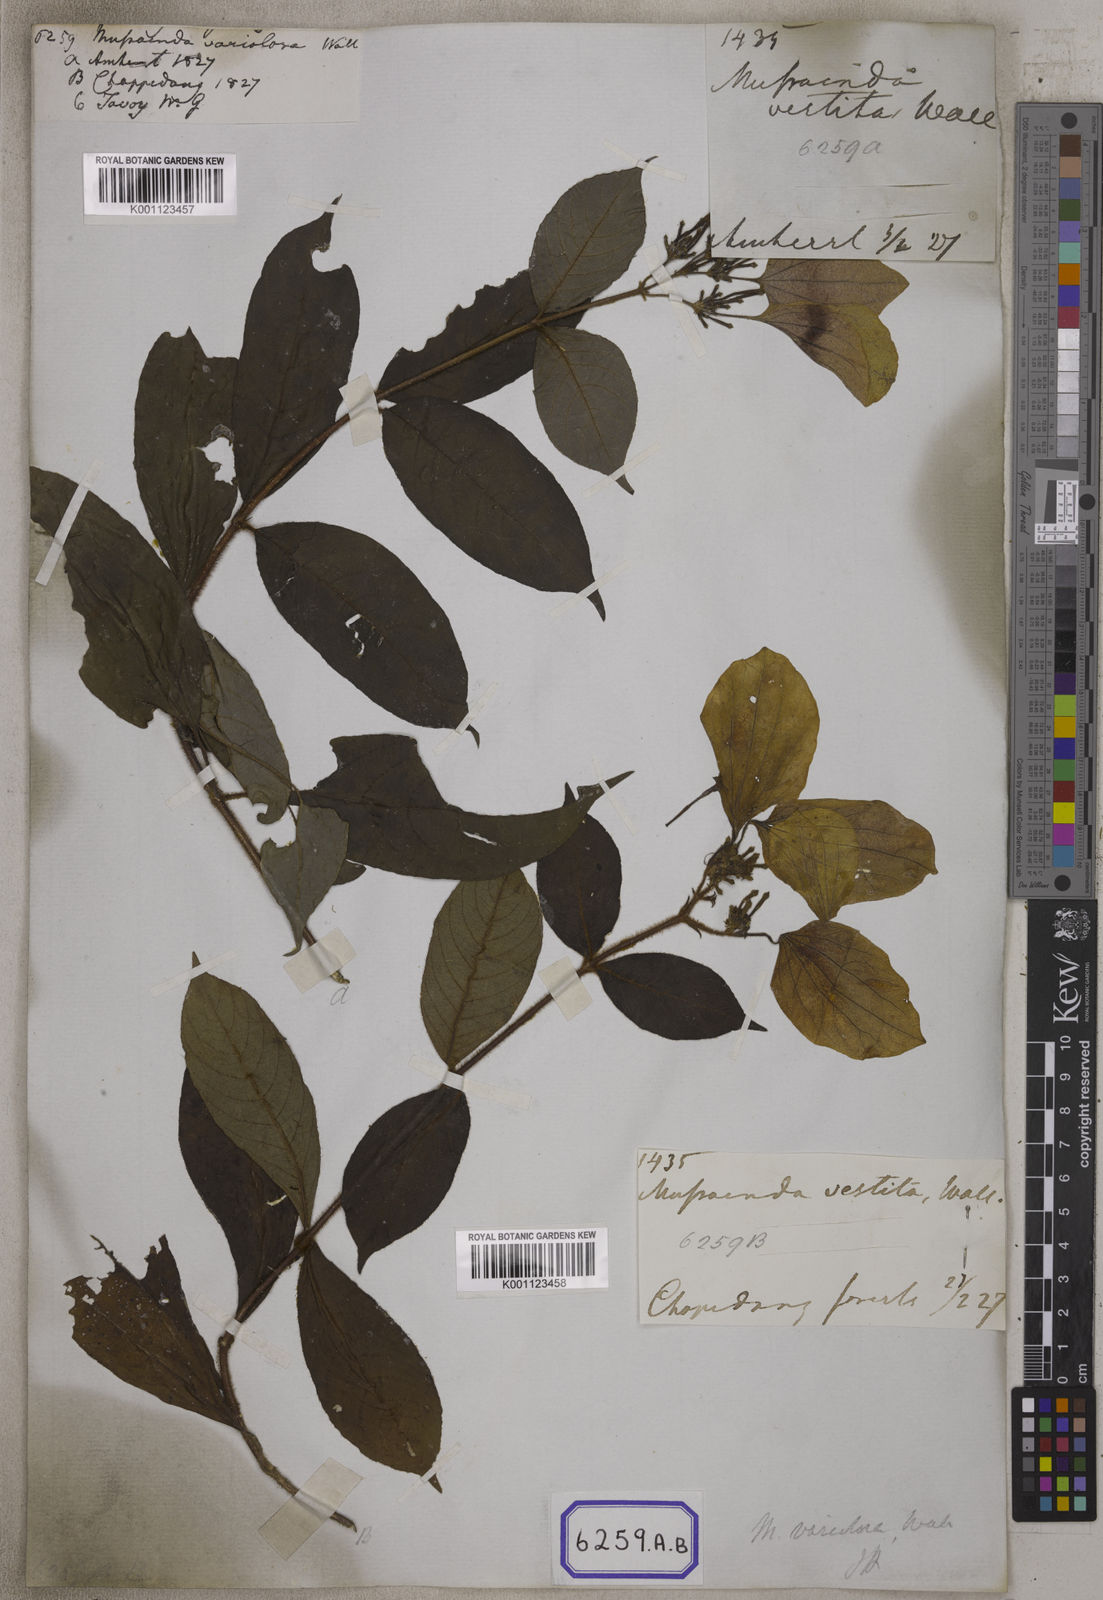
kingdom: Plantae
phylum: Tracheophyta
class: Magnoliopsida
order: Gentianales
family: Rubiaceae
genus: Mussaenda
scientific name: Mussaenda
